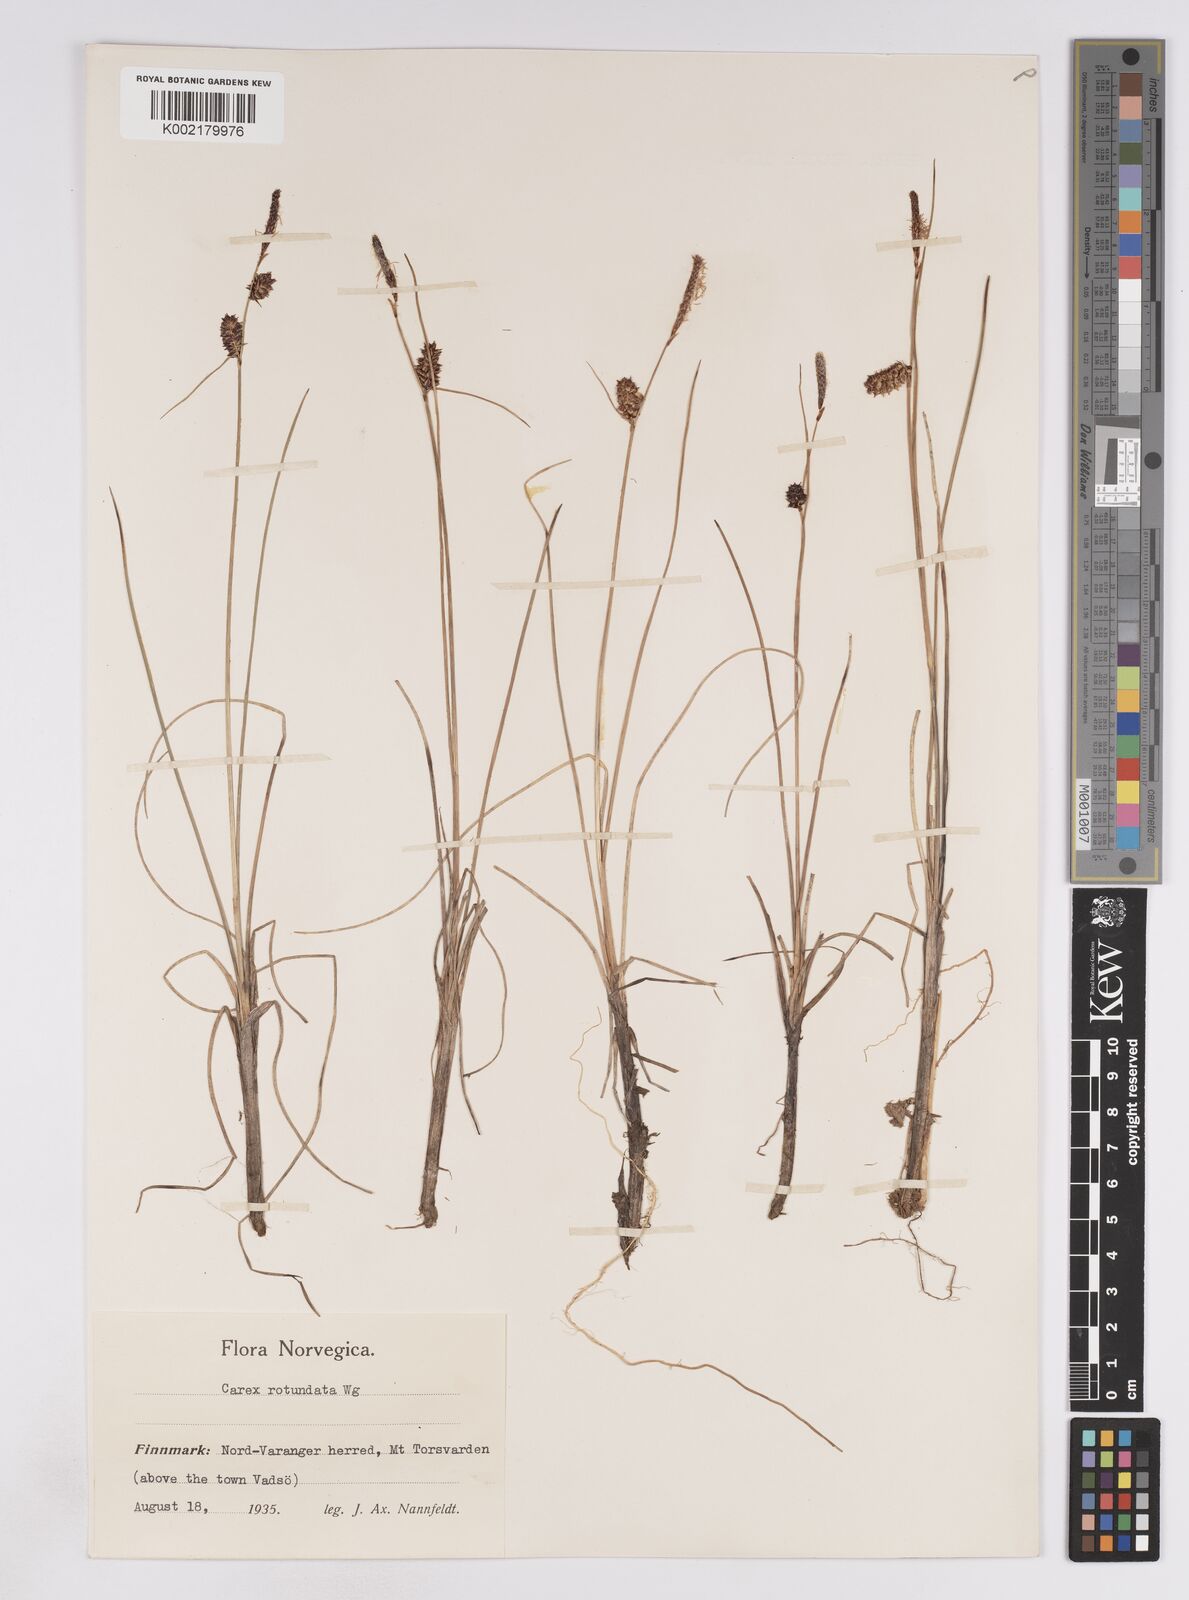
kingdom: Plantae
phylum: Tracheophyta
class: Liliopsida
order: Poales
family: Cyperaceae
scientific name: Cyperaceae
